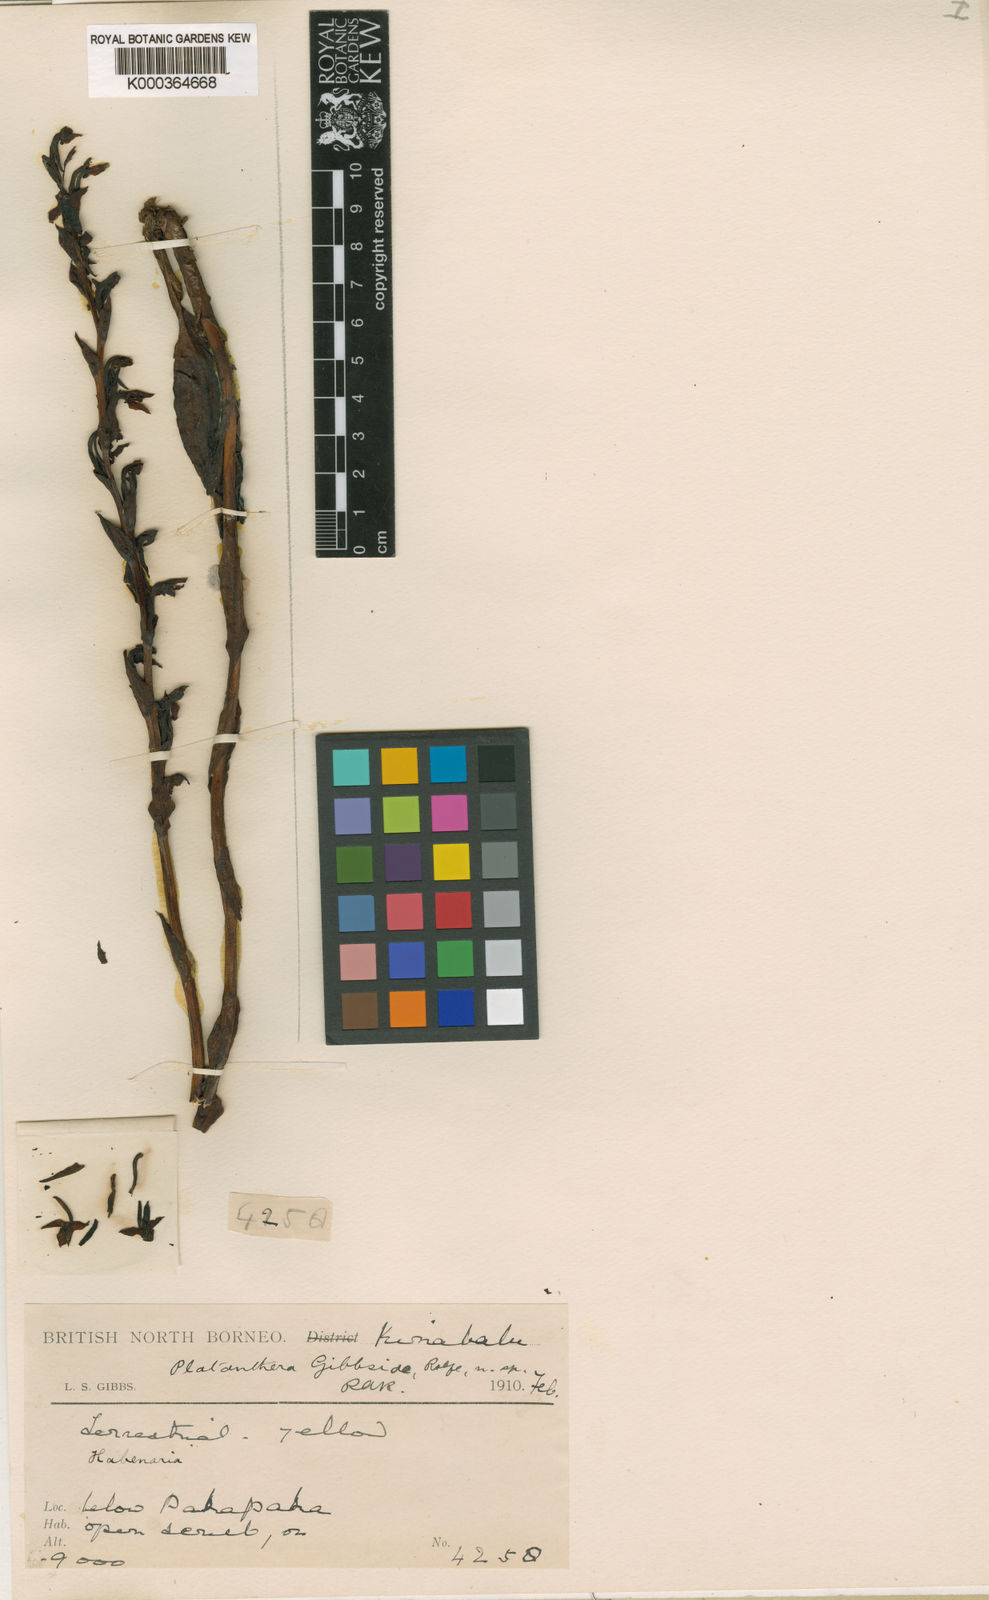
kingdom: Plantae
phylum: Tracheophyta
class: Liliopsida
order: Asparagales
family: Orchidaceae
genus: Platanthera
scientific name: Platanthera kinabaluensis
